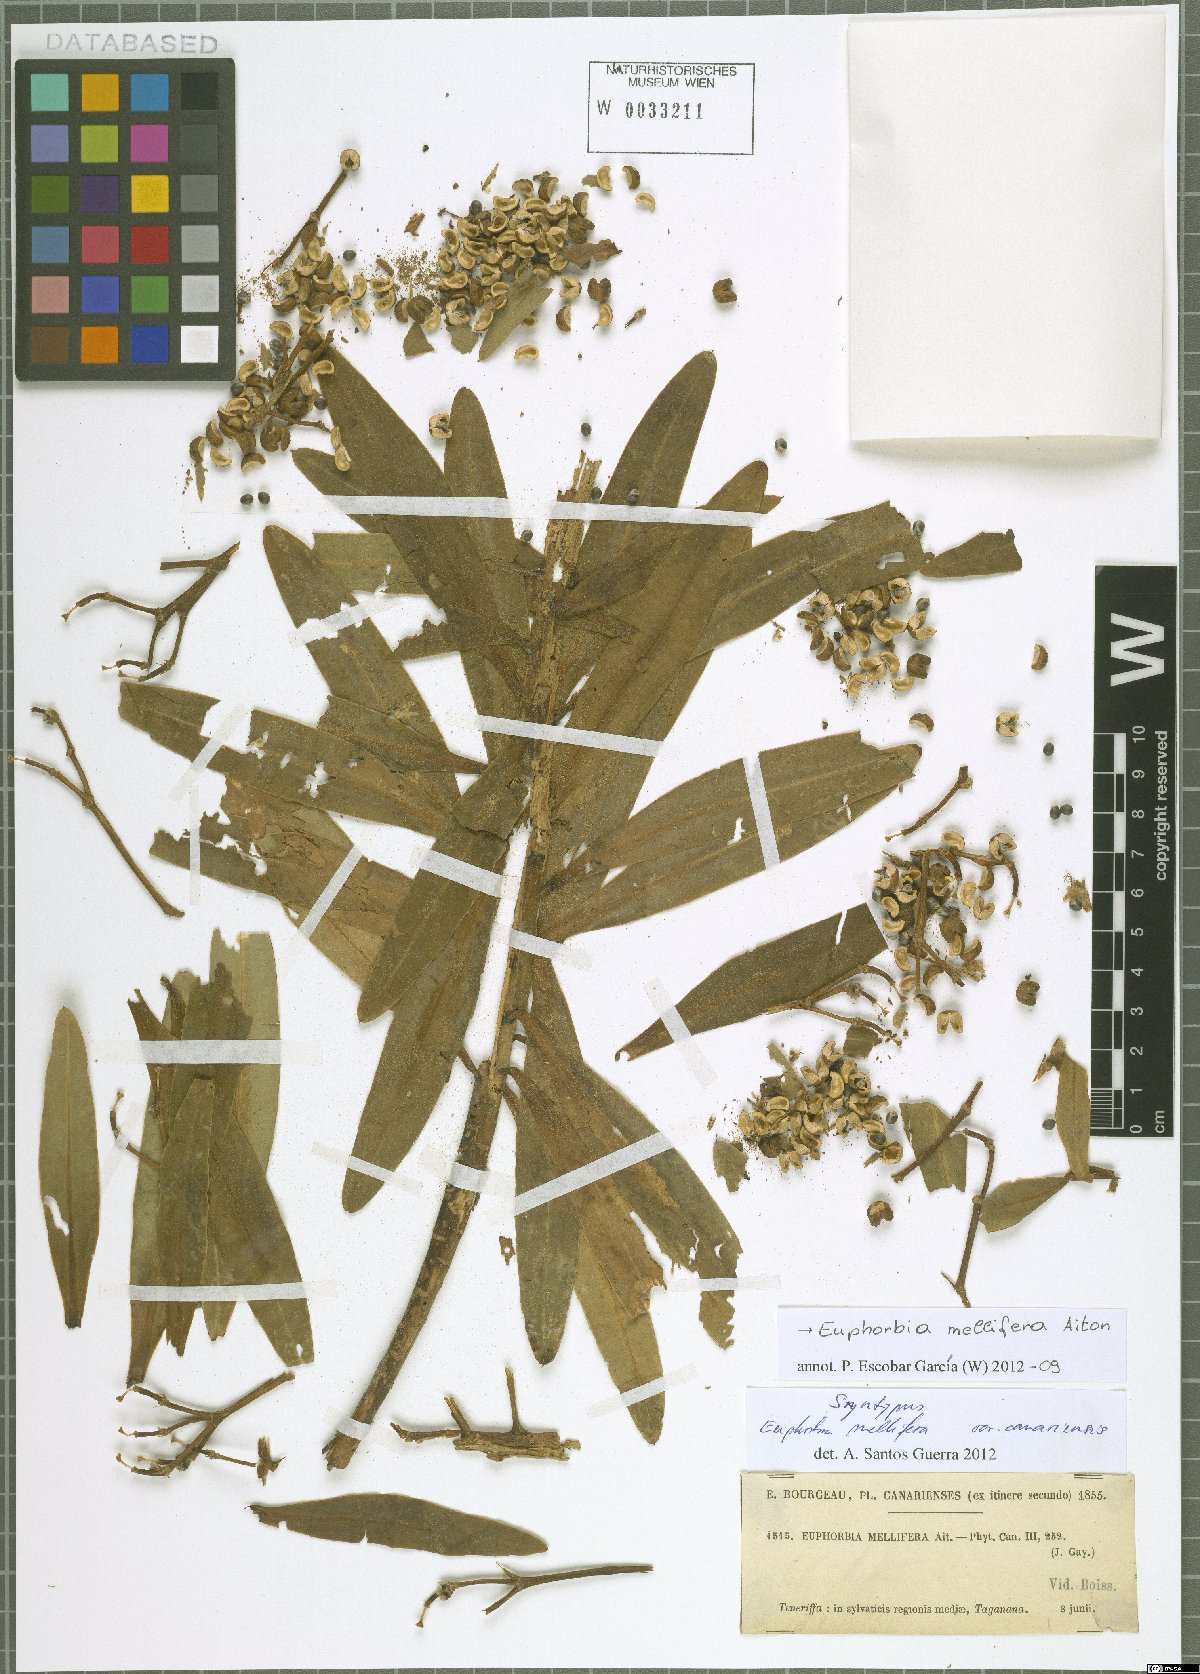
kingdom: Plantae
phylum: Tracheophyta
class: Magnoliopsida
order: Malpighiales
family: Euphorbiaceae
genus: Euphorbia
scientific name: Euphorbia mellifera
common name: Canary spurge
